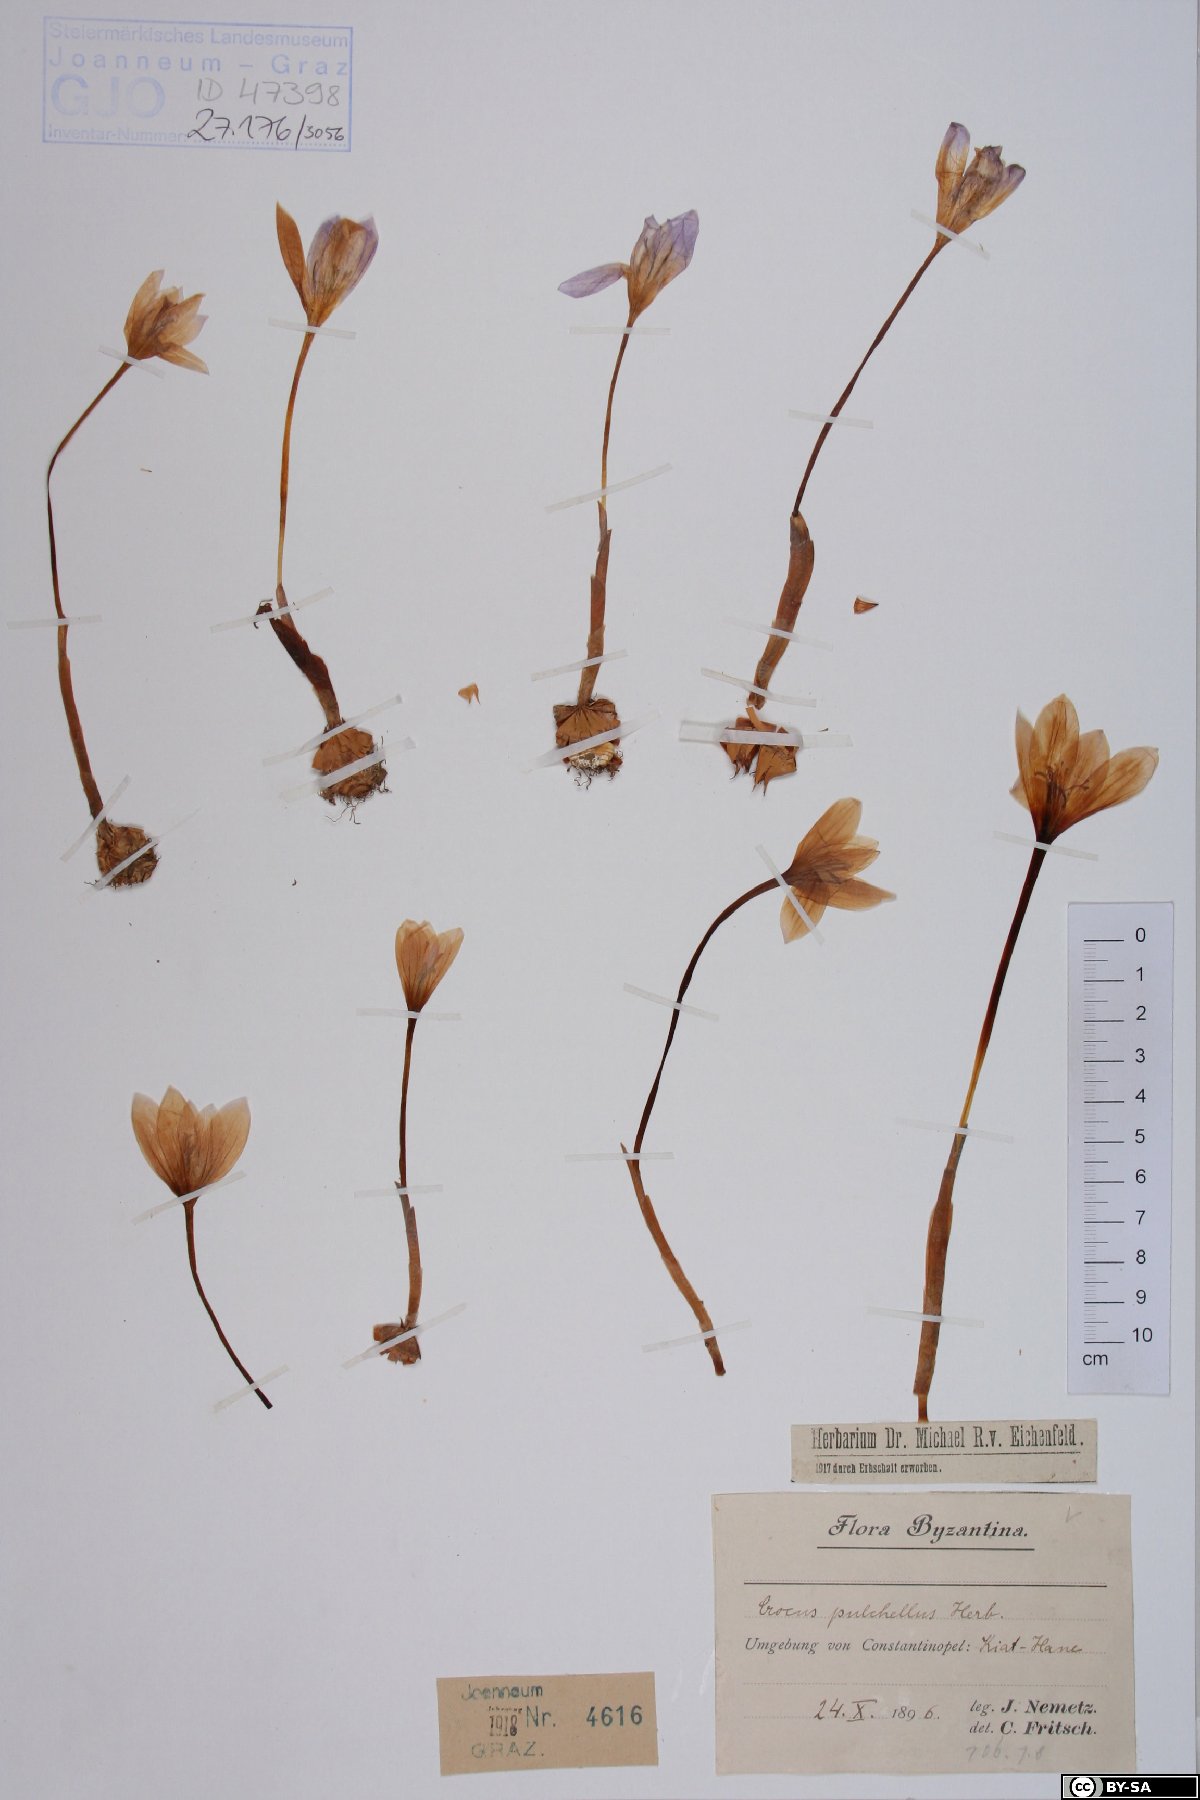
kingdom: Plantae
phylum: Tracheophyta
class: Liliopsida
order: Asparagales
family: Iridaceae
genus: Crocus
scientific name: Crocus pulchellus
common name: Hairy crocus
